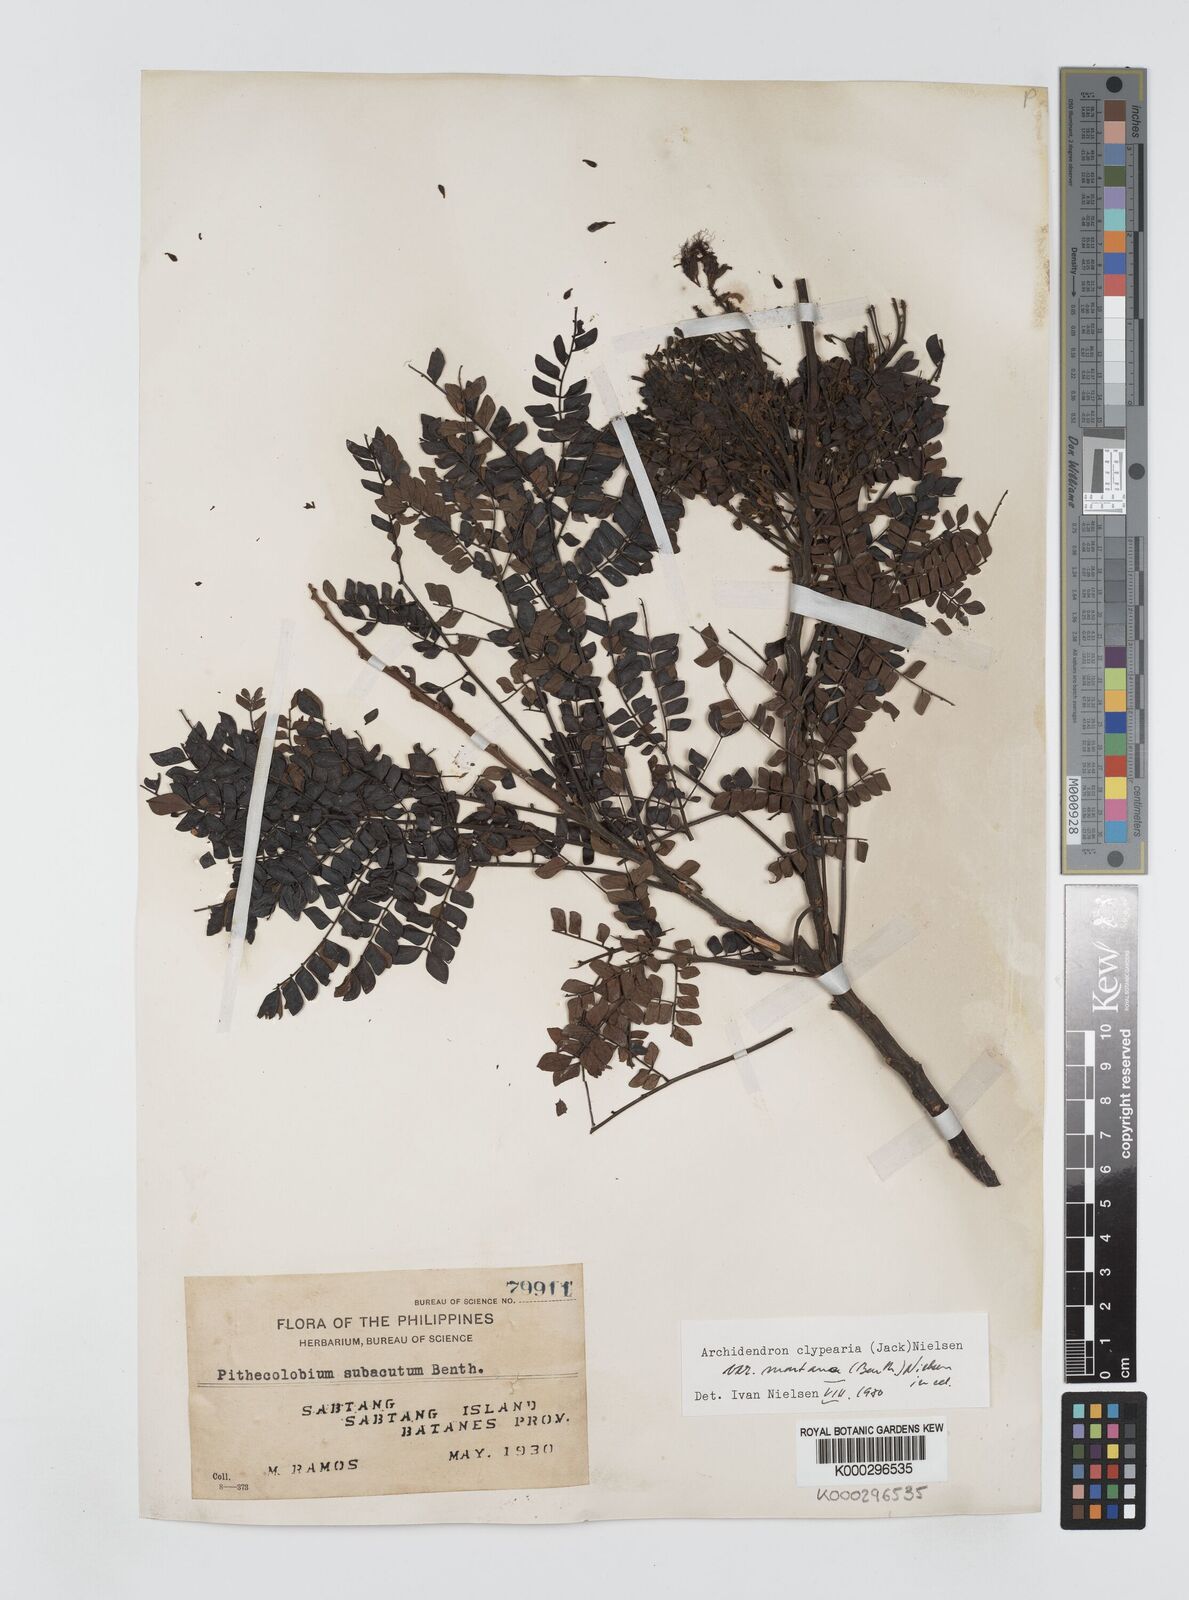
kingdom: Plantae
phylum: Tracheophyta
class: Magnoliopsida
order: Fabales
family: Fabaceae
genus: Archidendron
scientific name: Archidendron clypearia
